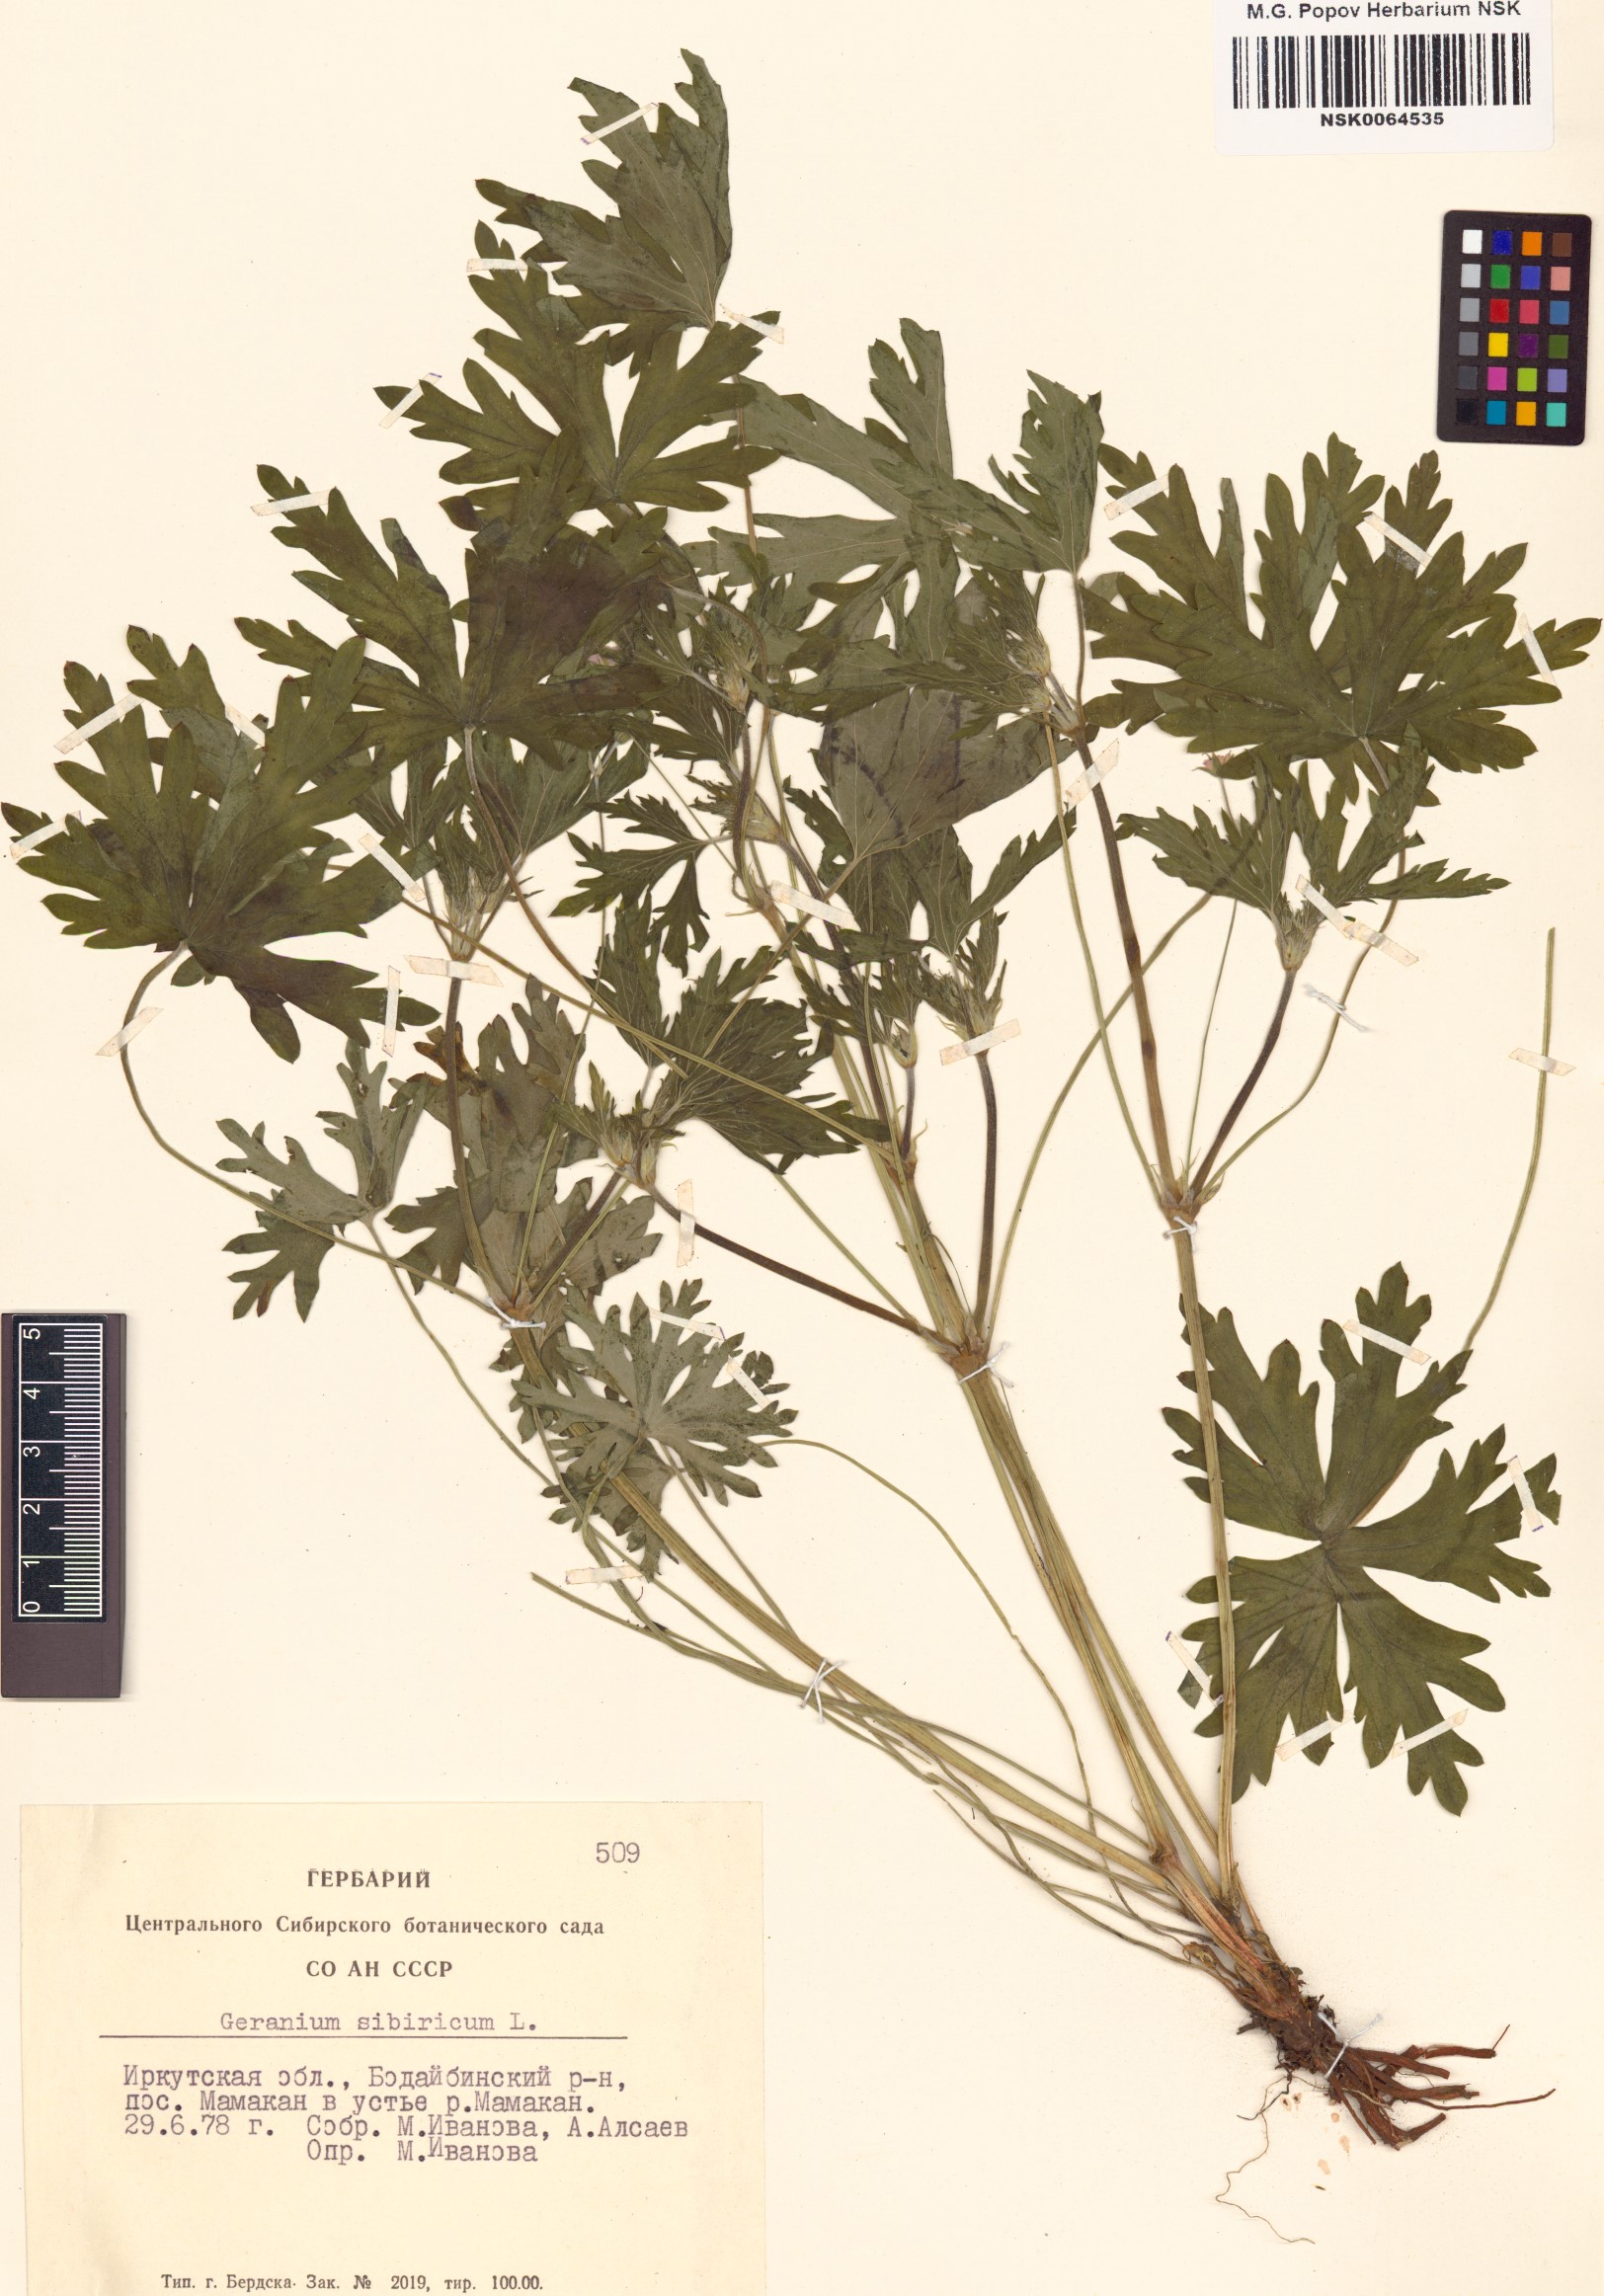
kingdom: Plantae
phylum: Tracheophyta
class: Magnoliopsida
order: Geraniales
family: Geraniaceae
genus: Geranium
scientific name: Geranium sibiricum
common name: Siberian crane's-bill
